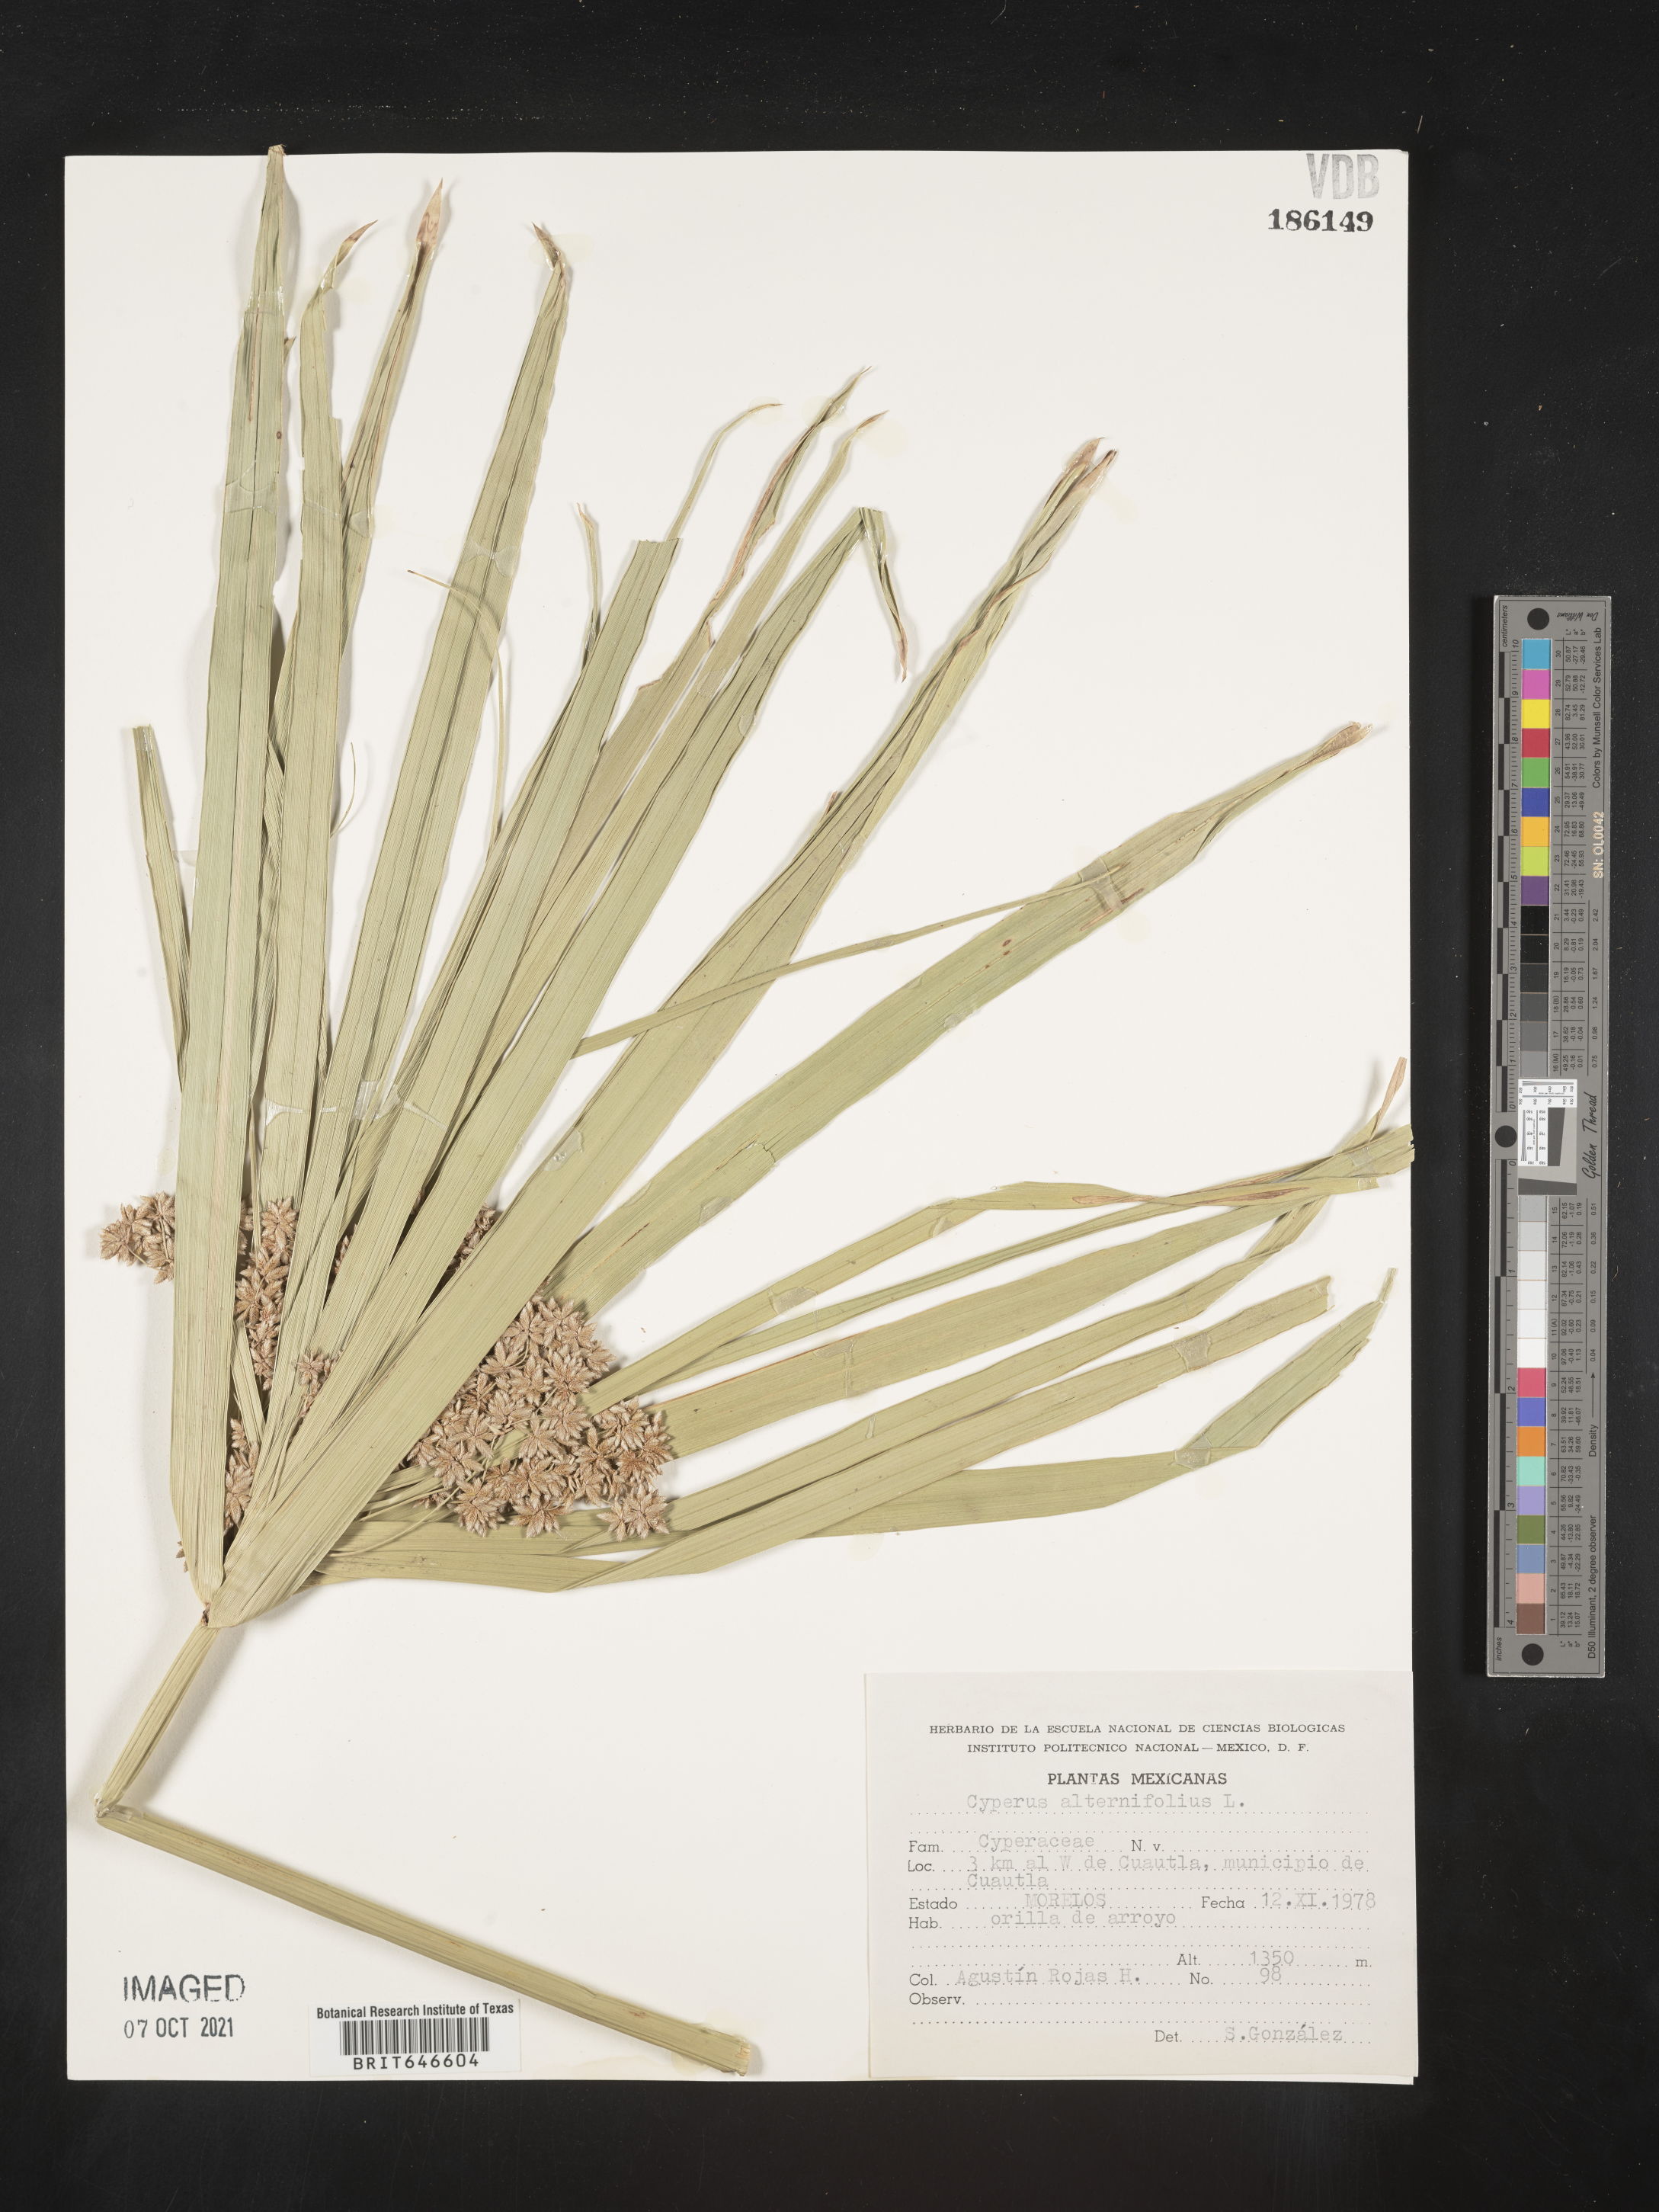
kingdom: Plantae
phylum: Tracheophyta
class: Liliopsida
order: Poales
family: Cyperaceae
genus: Cyperus
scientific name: Cyperus
